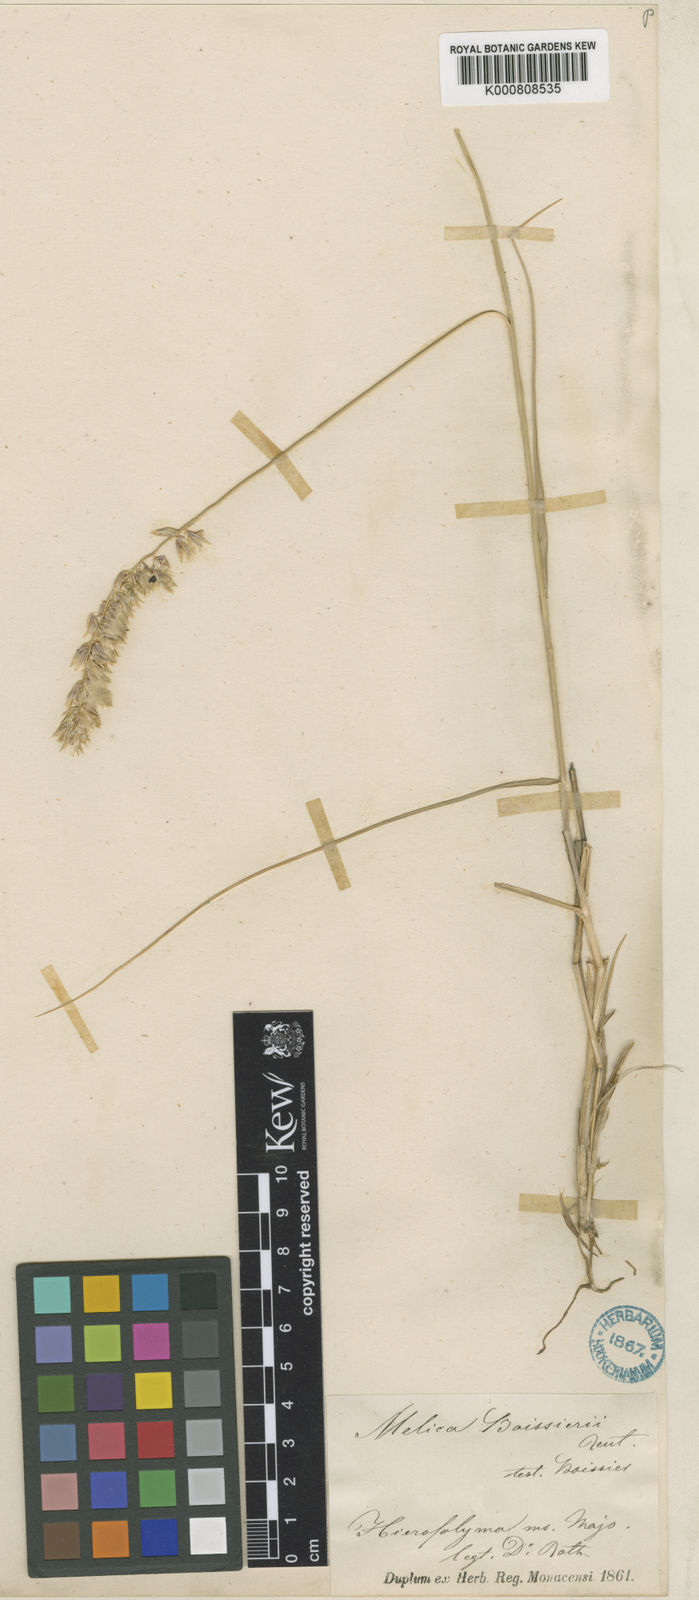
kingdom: Plantae
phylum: Tracheophyta
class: Liliopsida
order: Poales
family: Poaceae
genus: Melica
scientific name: Melica ciliata
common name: Hairy melicgrass
